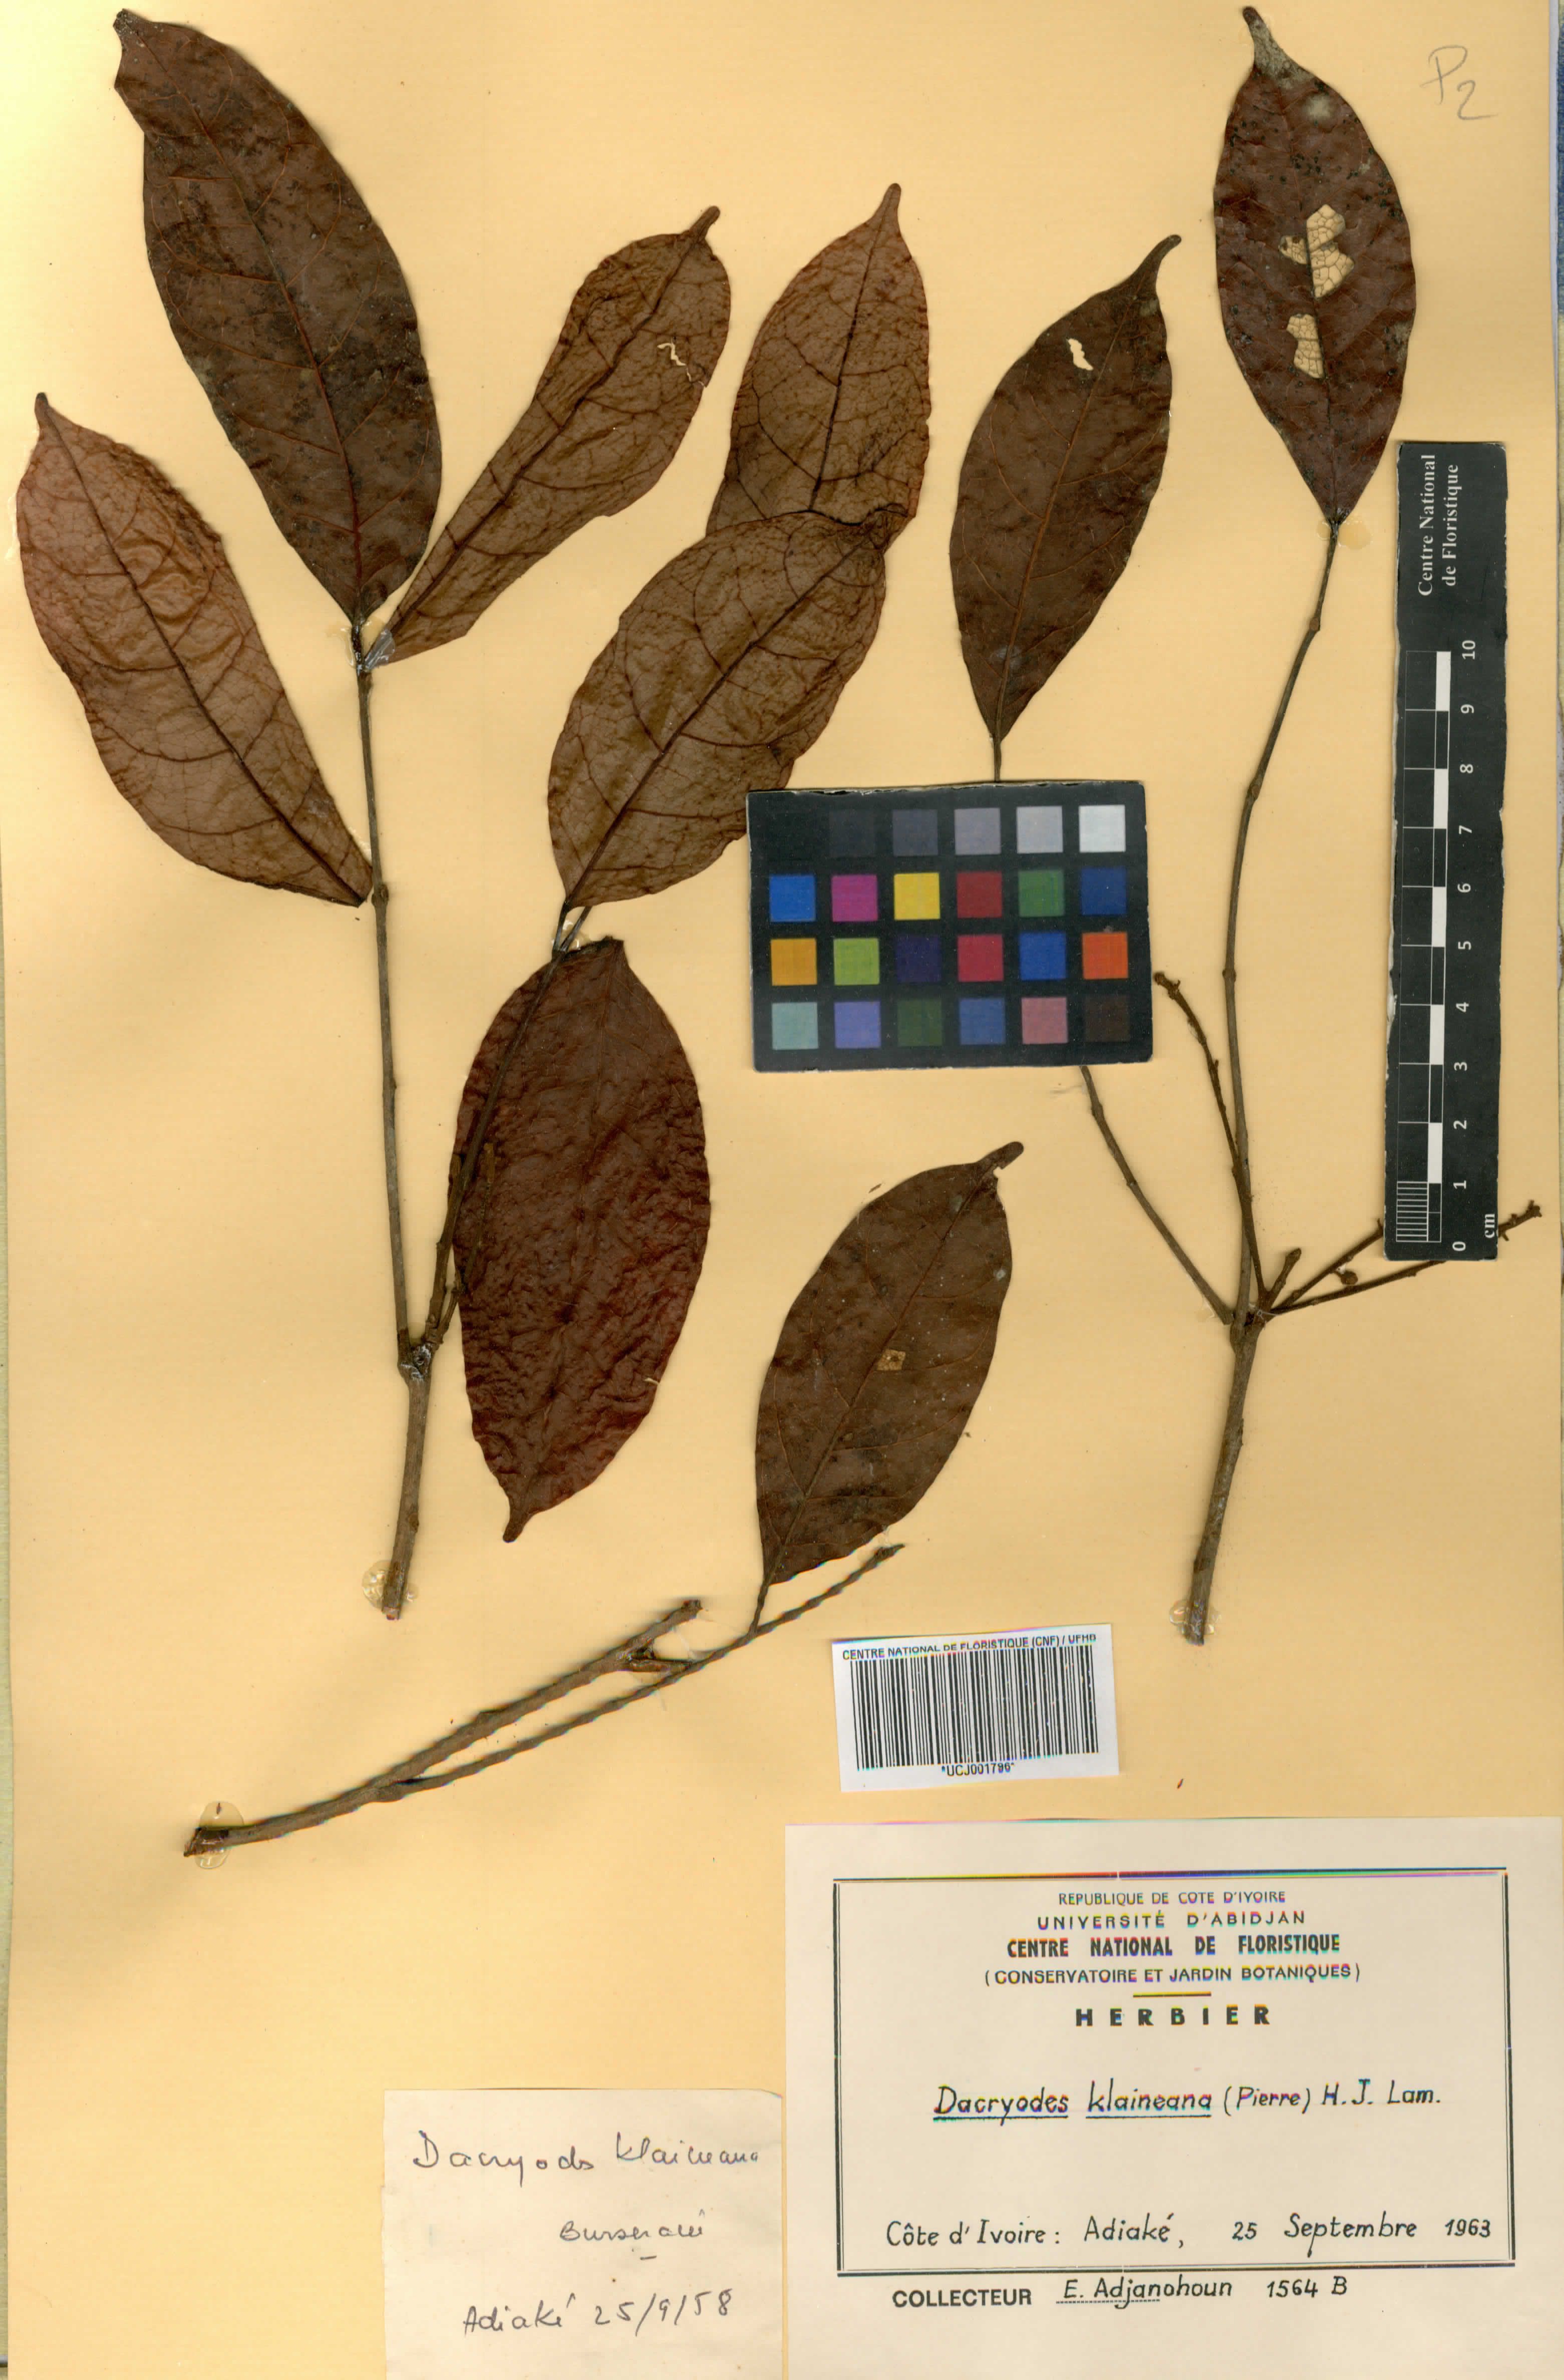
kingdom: Plantae
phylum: Tracheophyta
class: Magnoliopsida
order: Sapindales
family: Burseraceae
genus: Pachylobus
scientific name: Pachylobus klaineana
